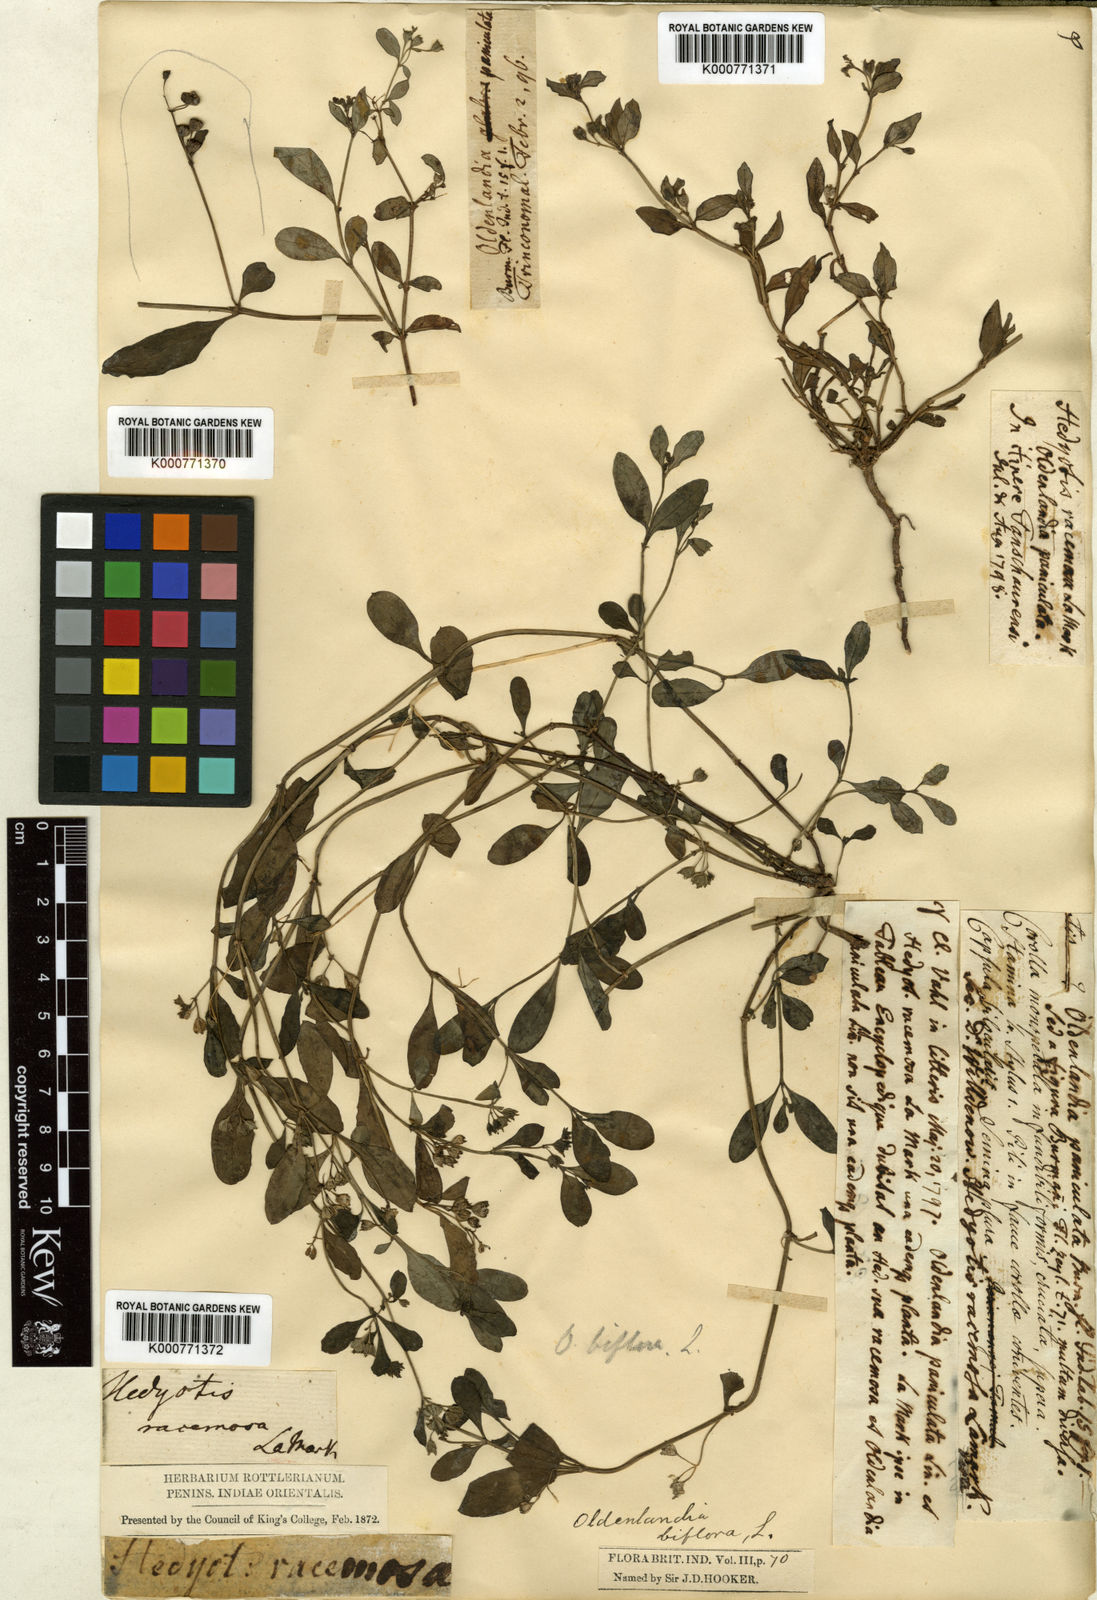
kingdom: Plantae
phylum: Tracheophyta
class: Magnoliopsida
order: Gentianales
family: Rubiaceae
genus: Leptopetalum
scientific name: Leptopetalum biflorum
